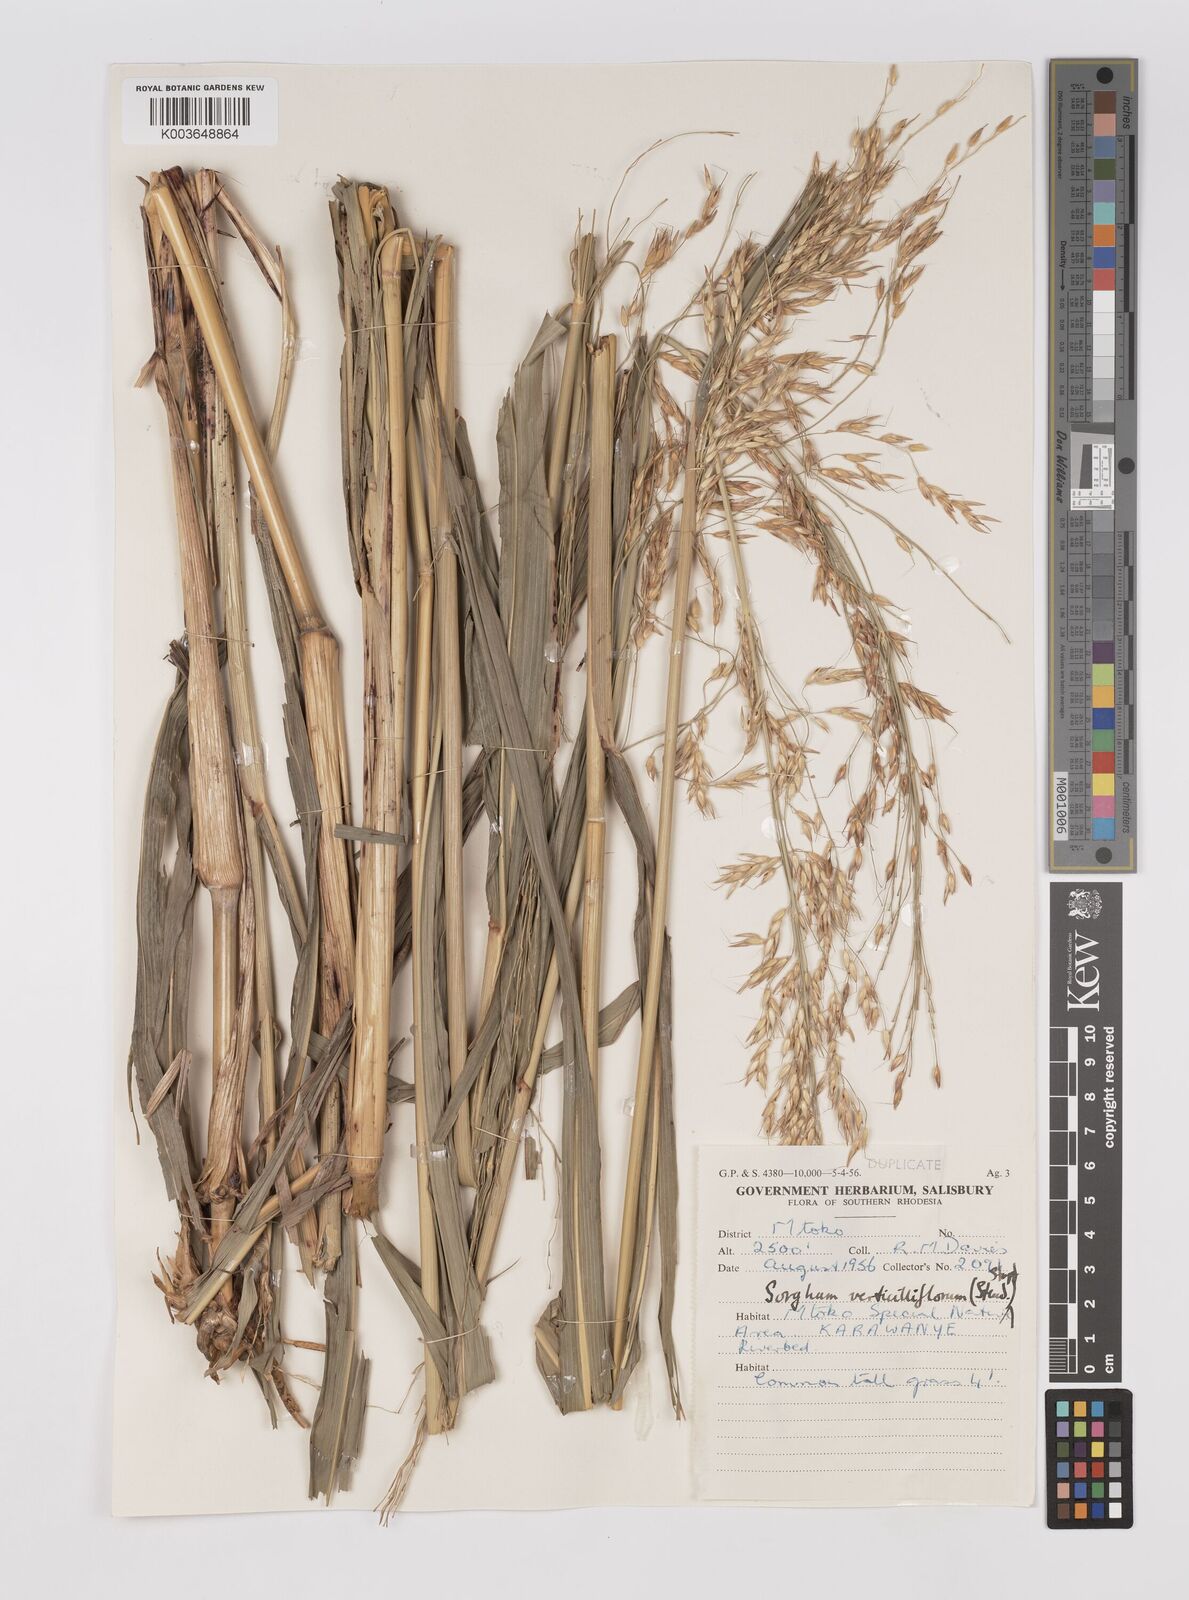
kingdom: Plantae
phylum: Tracheophyta
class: Liliopsida
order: Poales
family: Poaceae
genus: Sorghum
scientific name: Sorghum arundinaceum
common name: Sorghum
